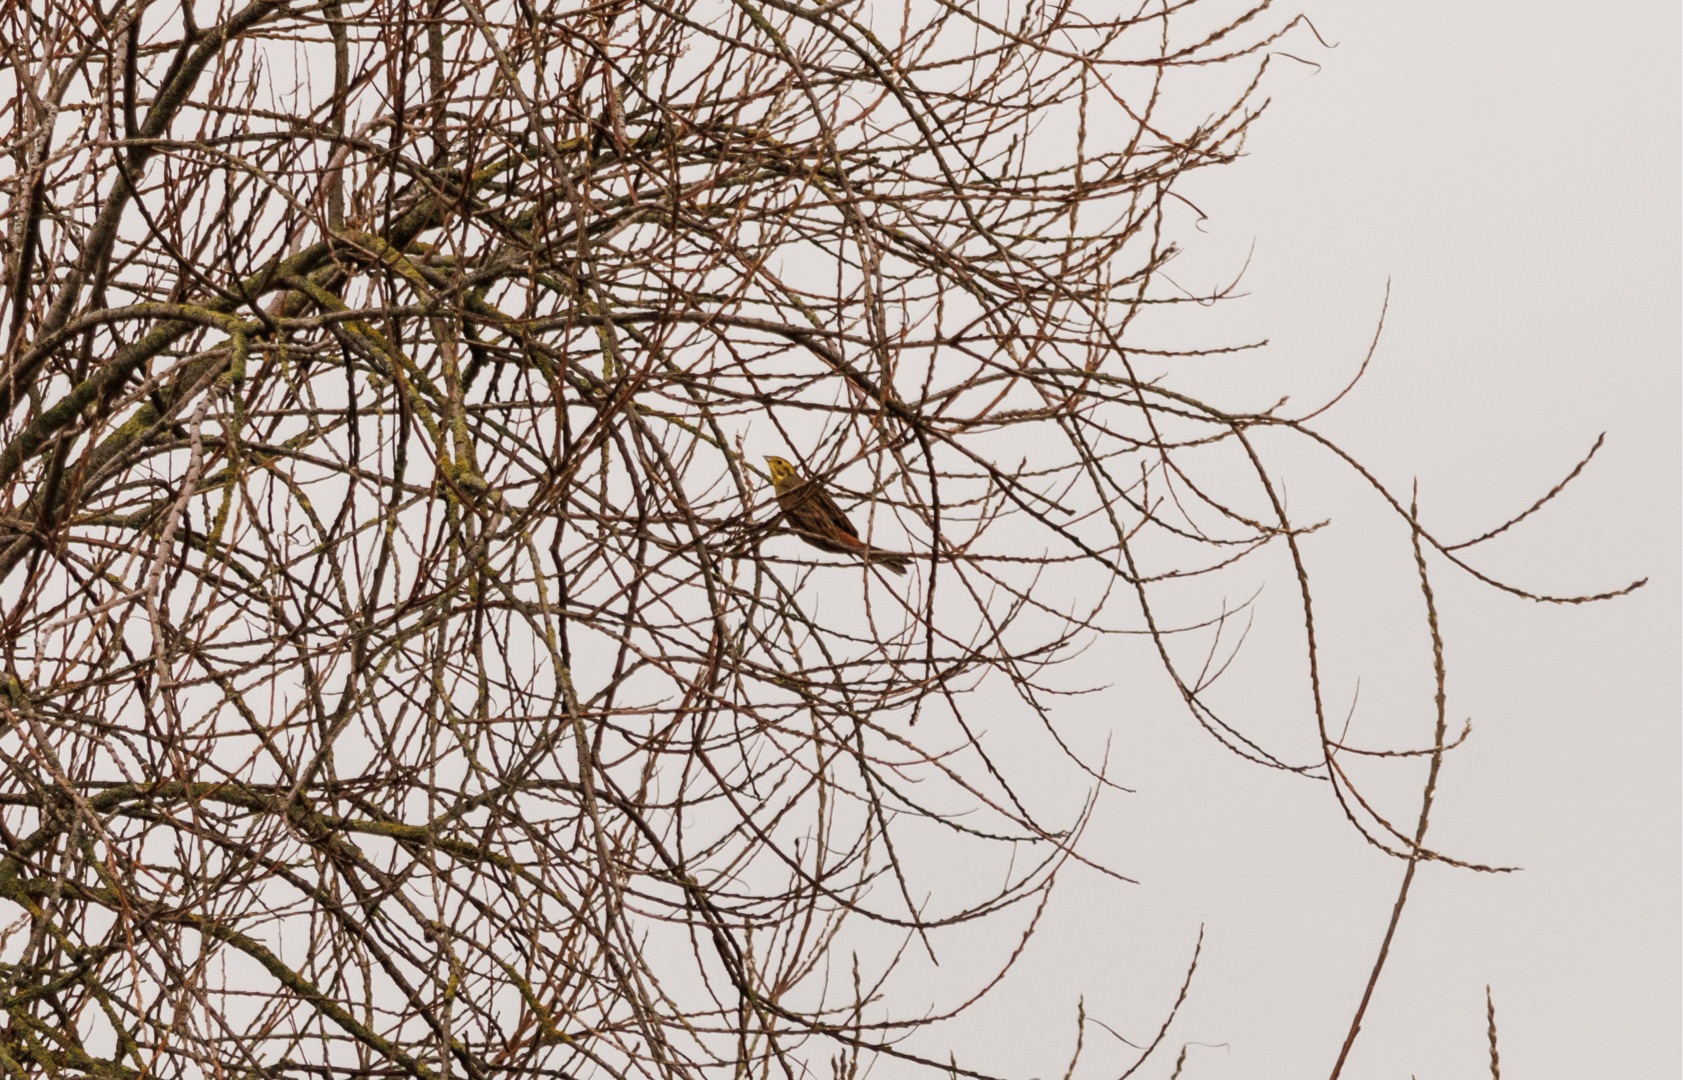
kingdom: Animalia
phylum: Chordata
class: Aves
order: Passeriformes
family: Emberizidae
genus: Emberiza
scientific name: Emberiza citrinella
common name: Gulspurv
